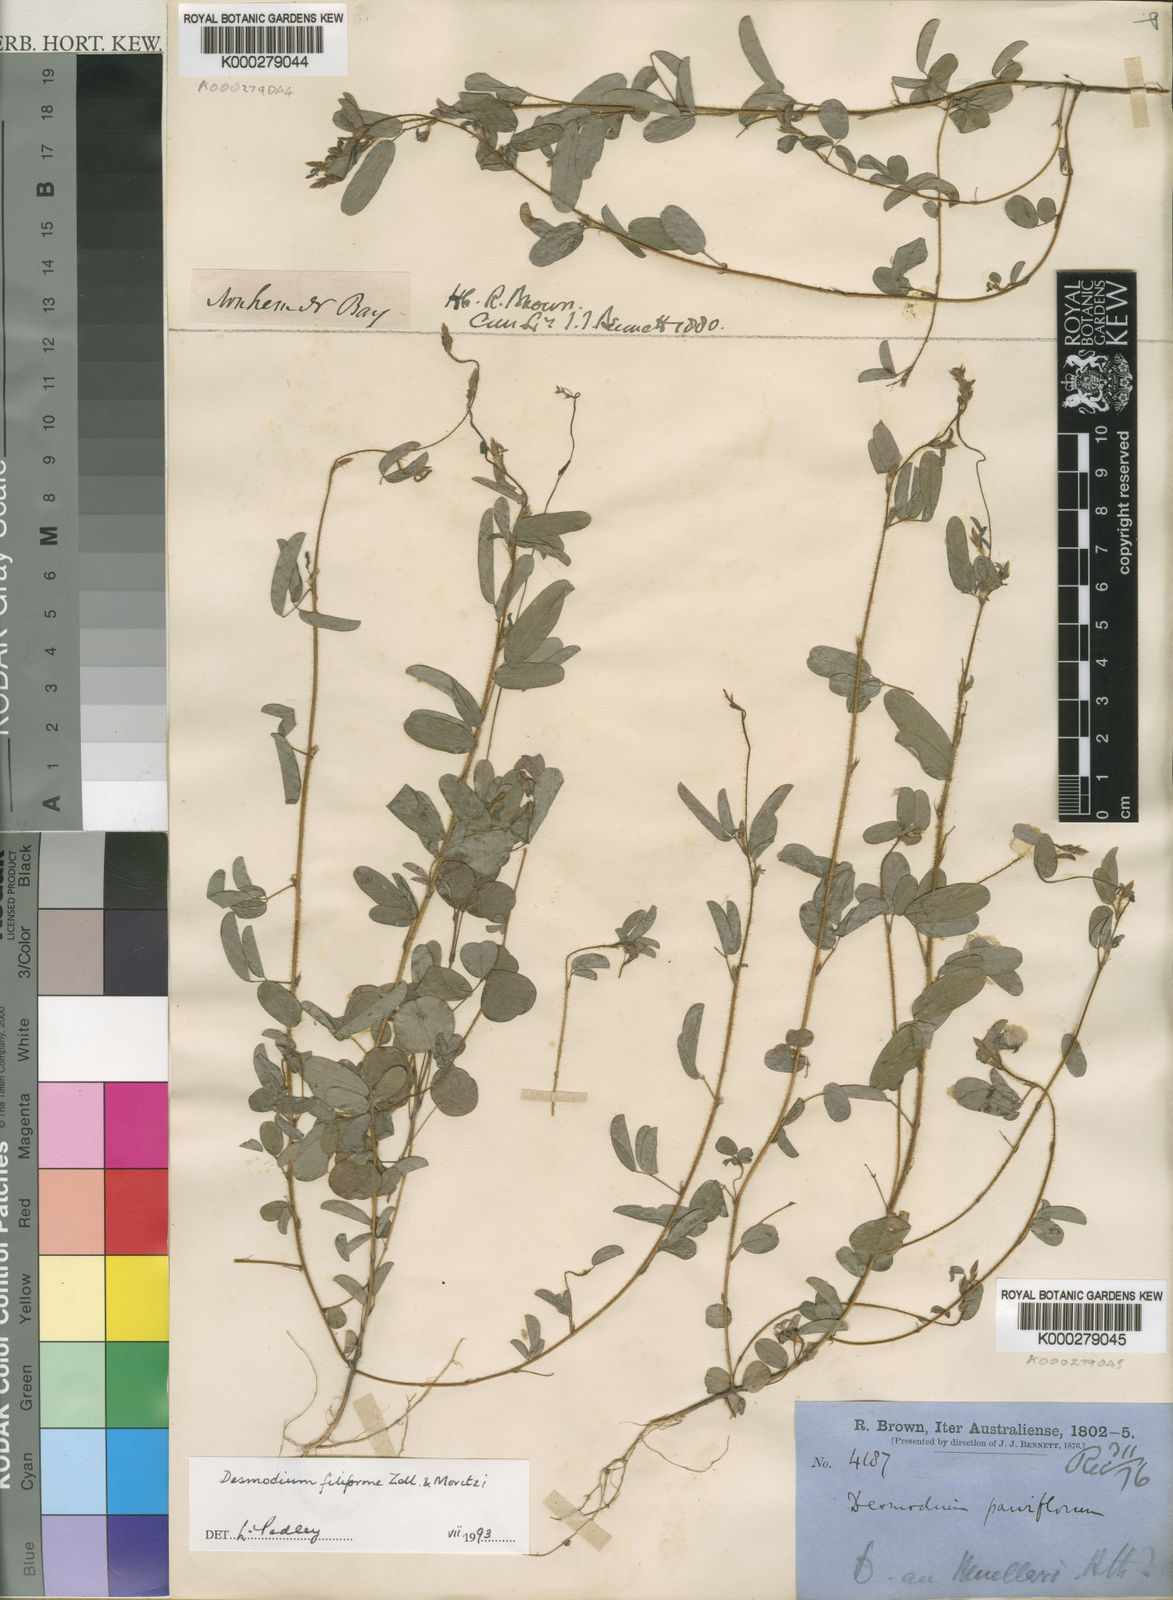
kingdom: Plantae
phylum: Tracheophyta
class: Magnoliopsida
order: Fabales
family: Fabaceae
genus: Grona
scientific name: Grona filiformis
